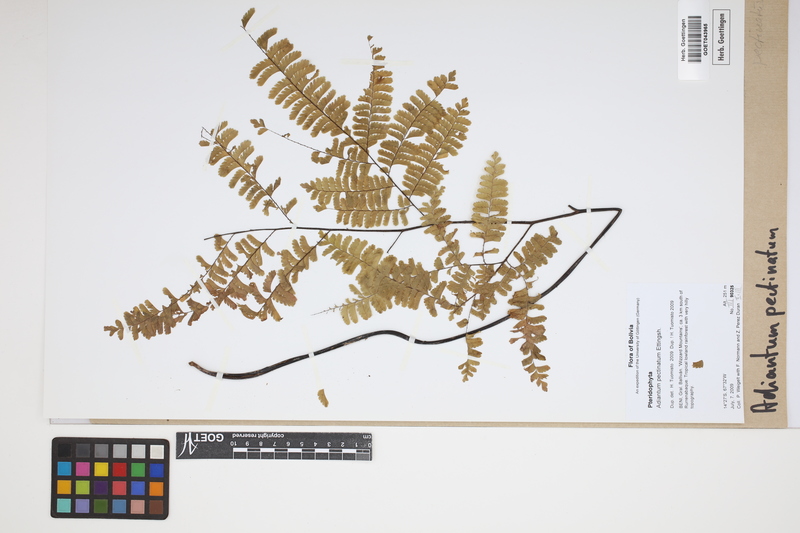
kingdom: Plantae
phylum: Tracheophyta
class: Polypodiopsida
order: Polypodiales
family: Pteridaceae
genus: Adiantum
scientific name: Adiantum pectinatum
